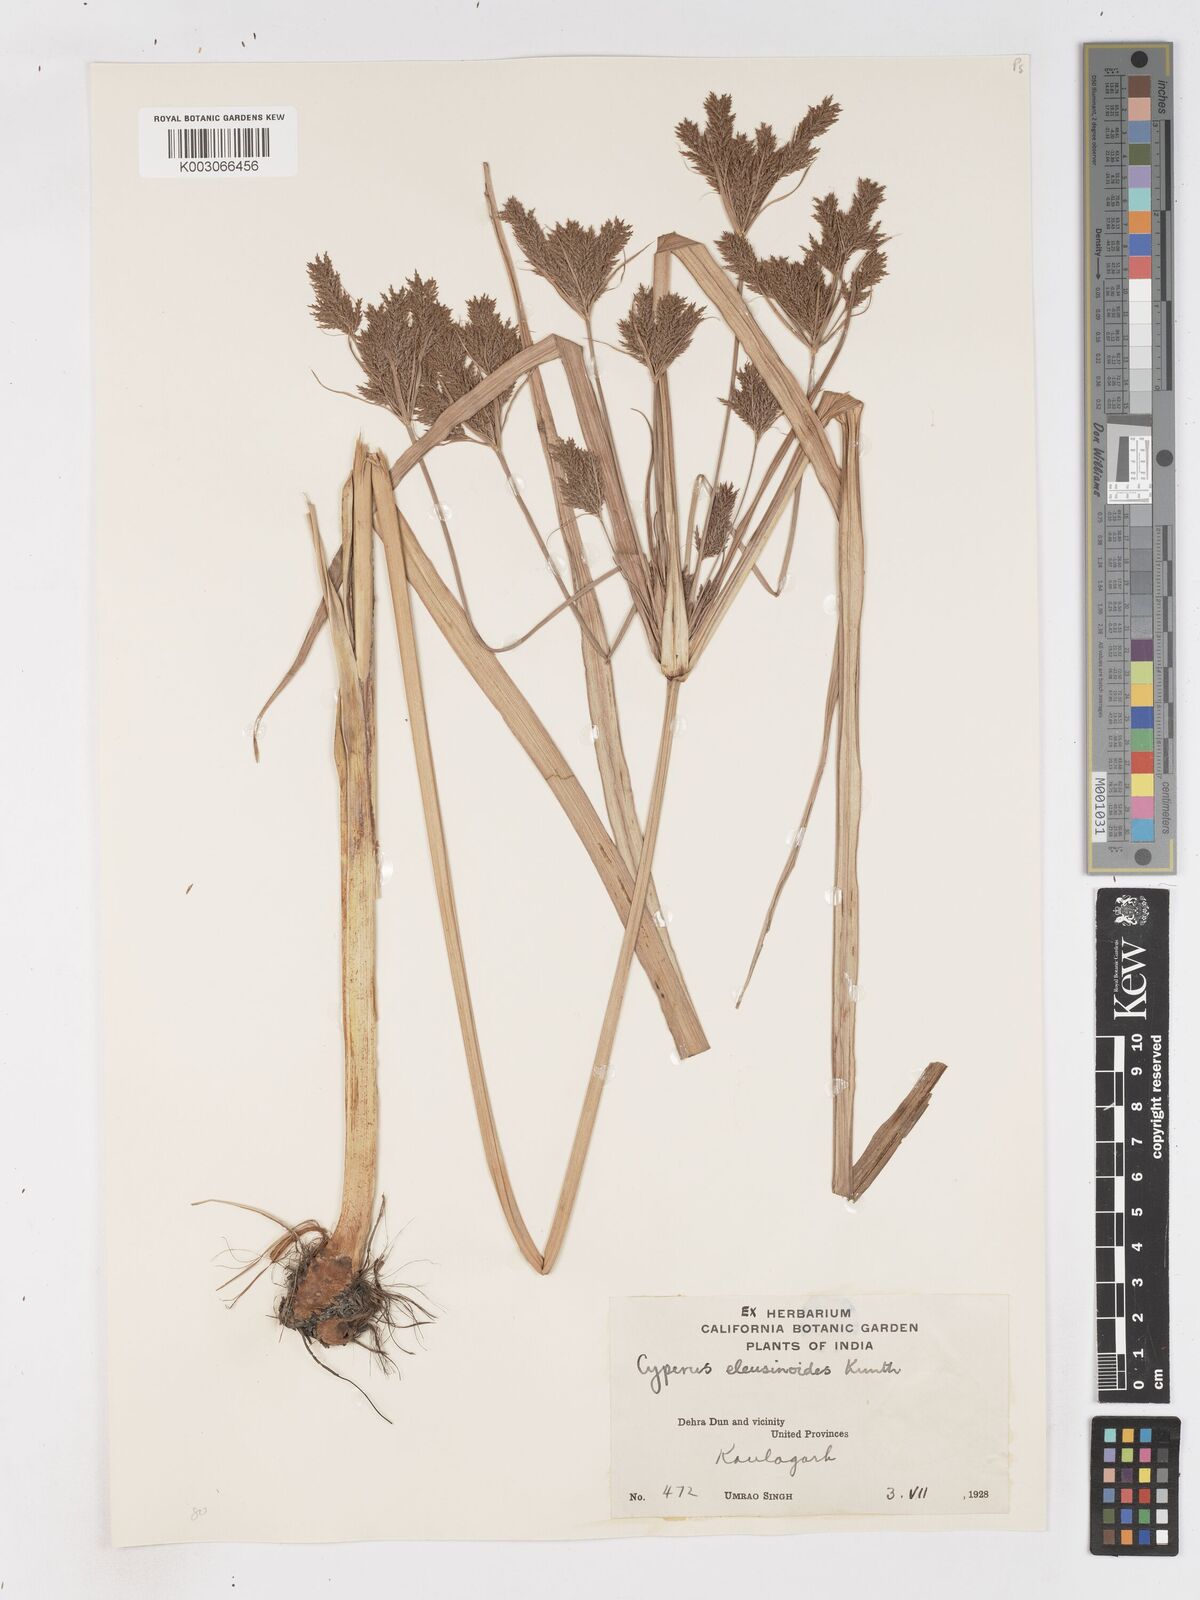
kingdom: Plantae
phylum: Tracheophyta
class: Liliopsida
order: Poales
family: Cyperaceae
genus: Cyperus
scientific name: Cyperus nutans
